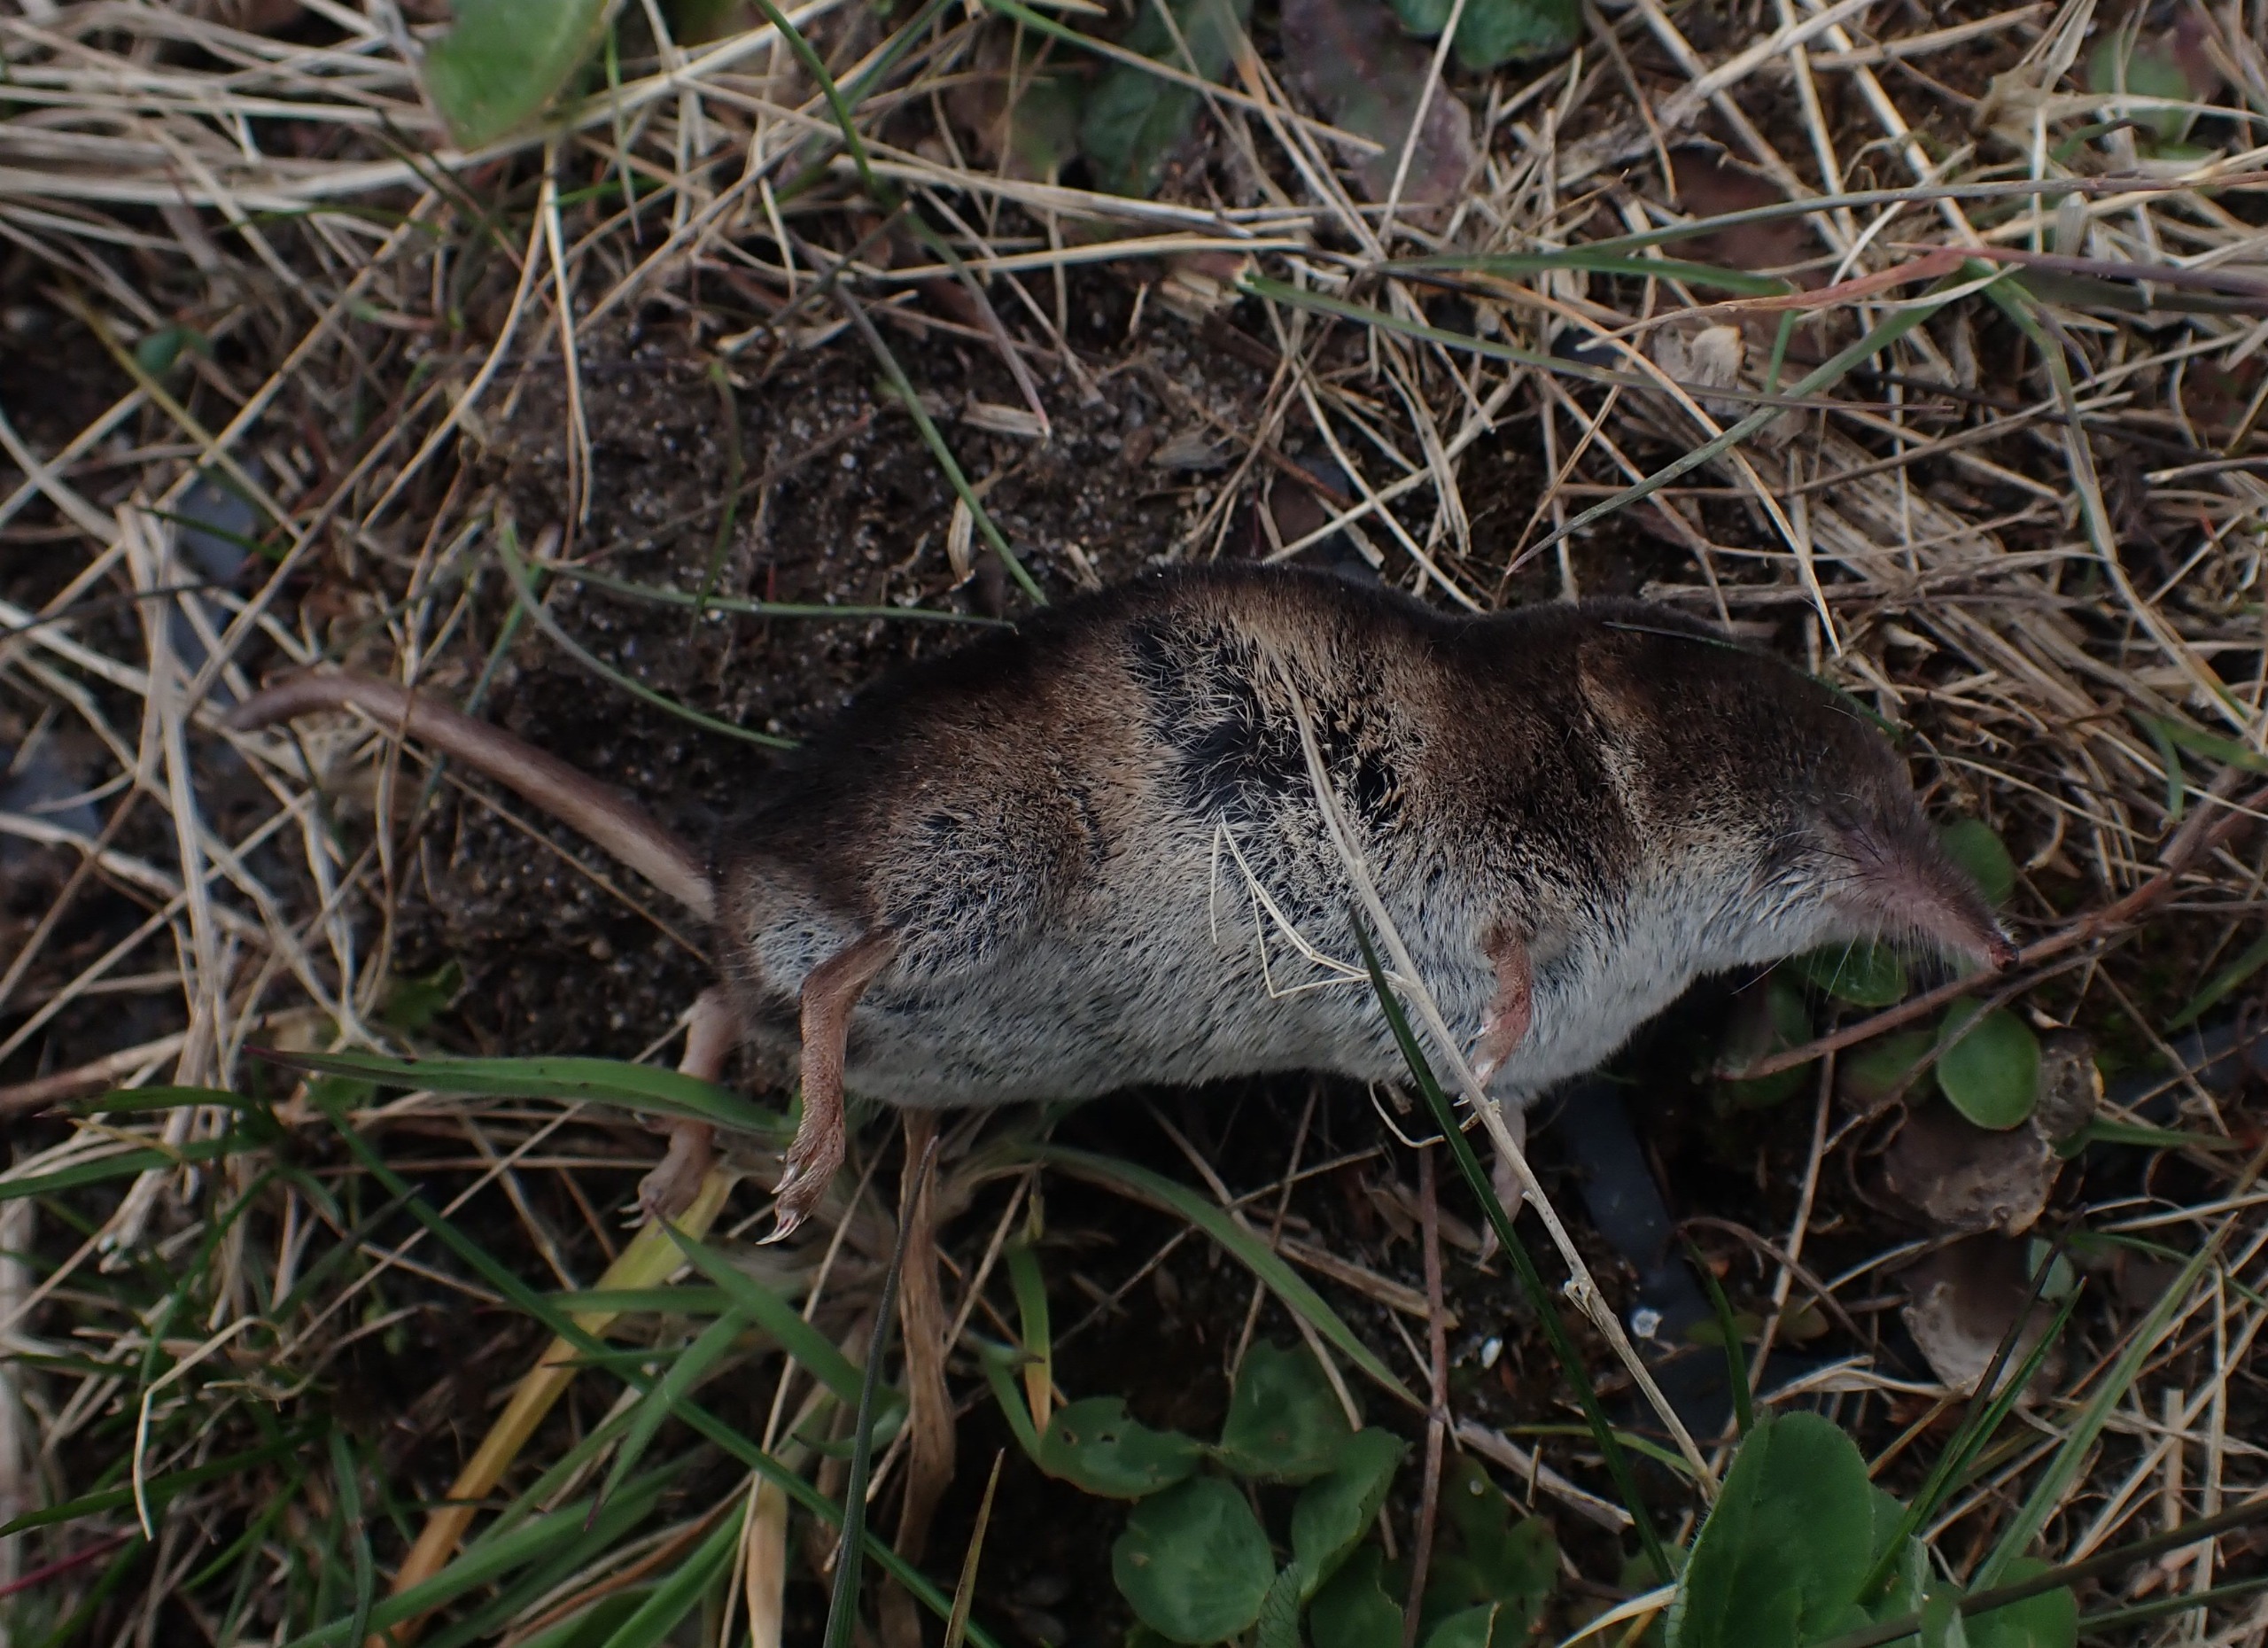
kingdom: Animalia
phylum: Chordata
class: Mammalia
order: Soricomorpha
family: Soricidae
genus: Sorex
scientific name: Sorex araneus
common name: Almindelig spidsmus
